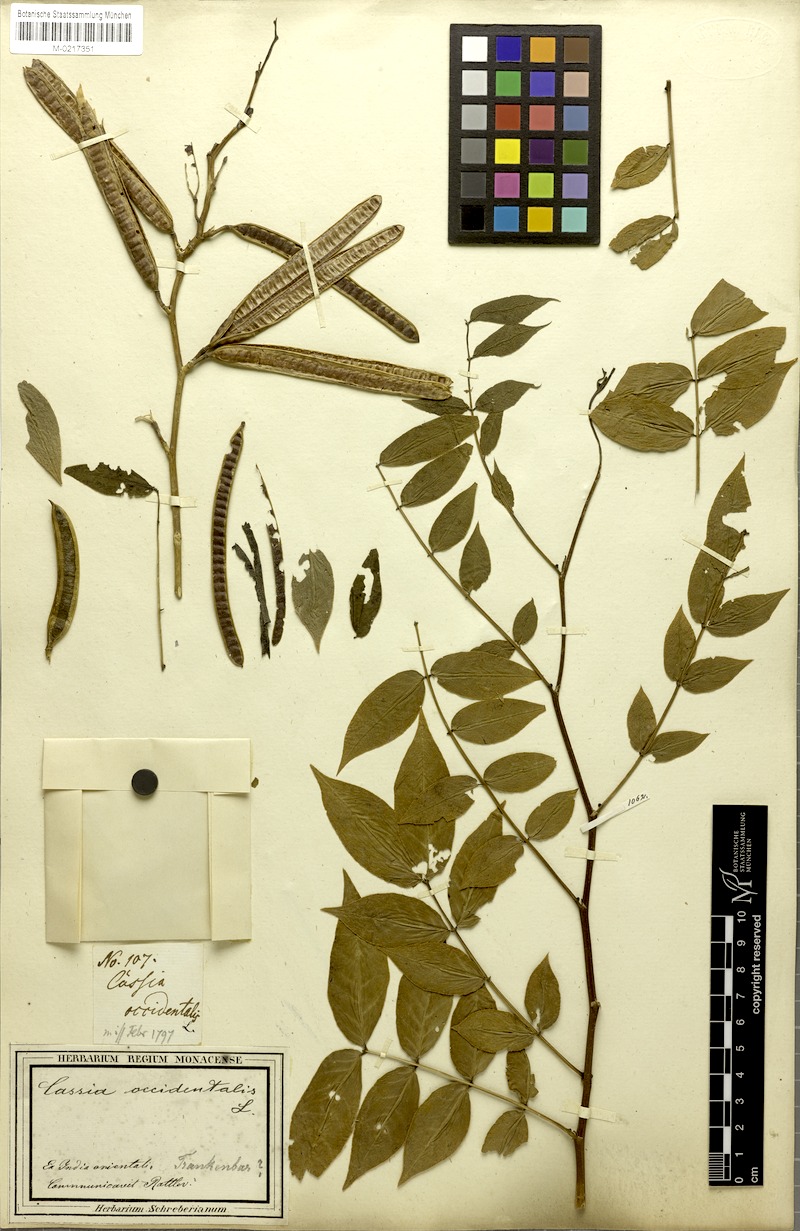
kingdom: Plantae
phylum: Tracheophyta
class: Magnoliopsida
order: Fabales
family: Fabaceae
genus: Senna
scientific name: Senna occidentalis
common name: Septicweed
